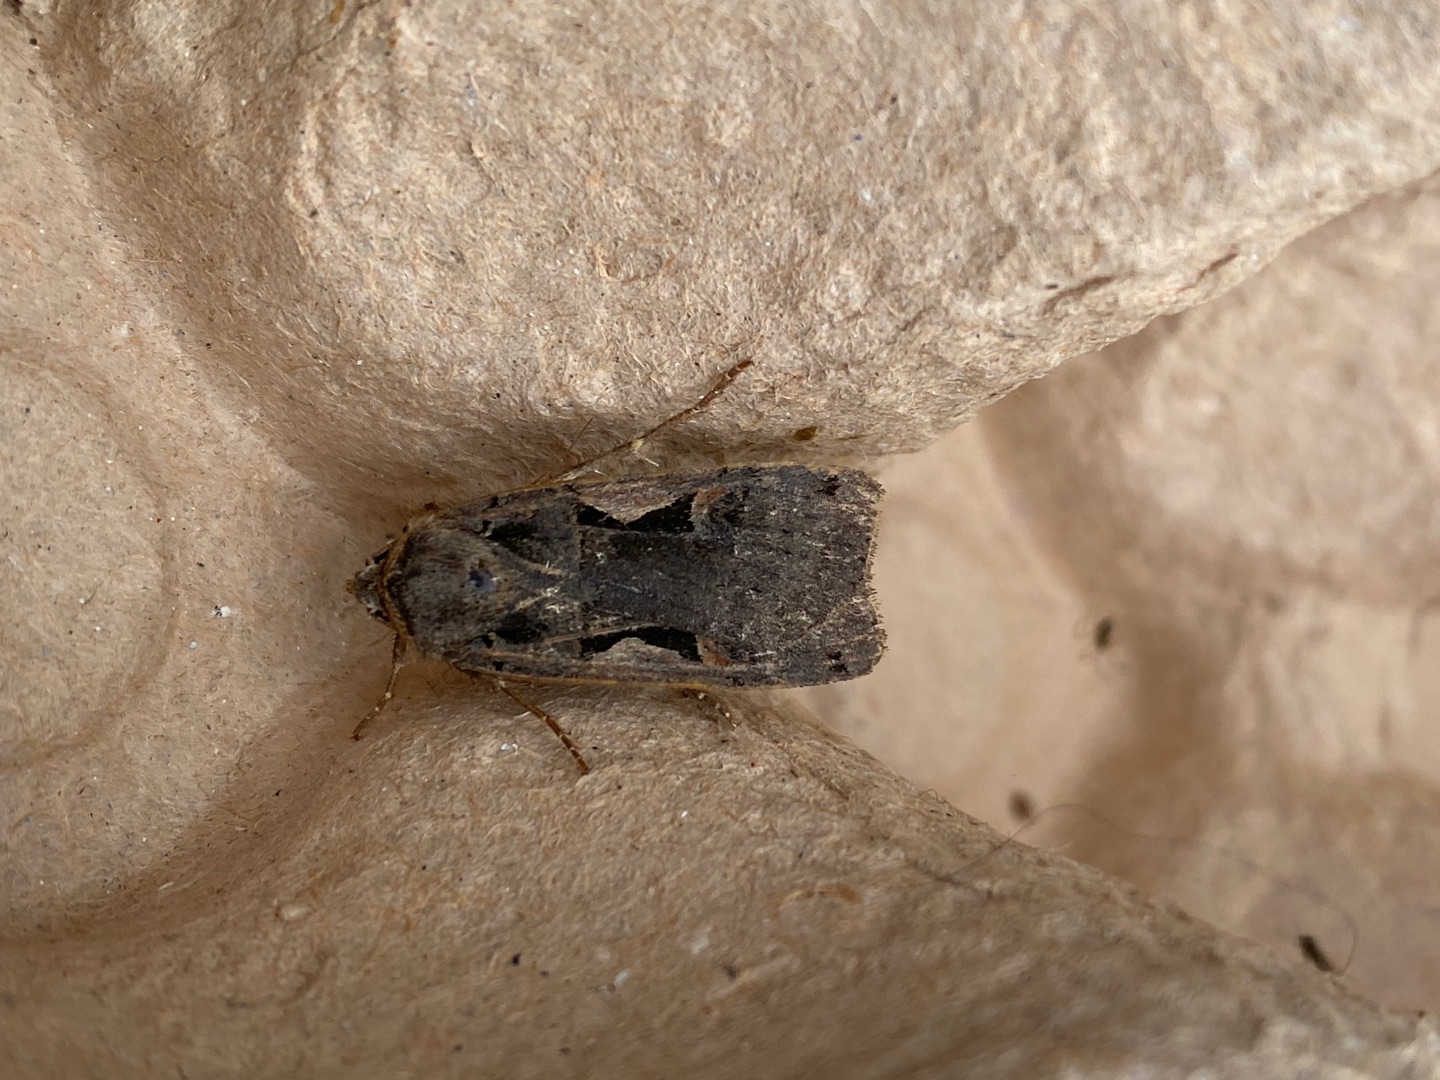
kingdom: Animalia
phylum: Arthropoda
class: Insecta
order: Lepidoptera
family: Noctuidae
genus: Xestia
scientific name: Xestia c-nigrum
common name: Det sorte c
